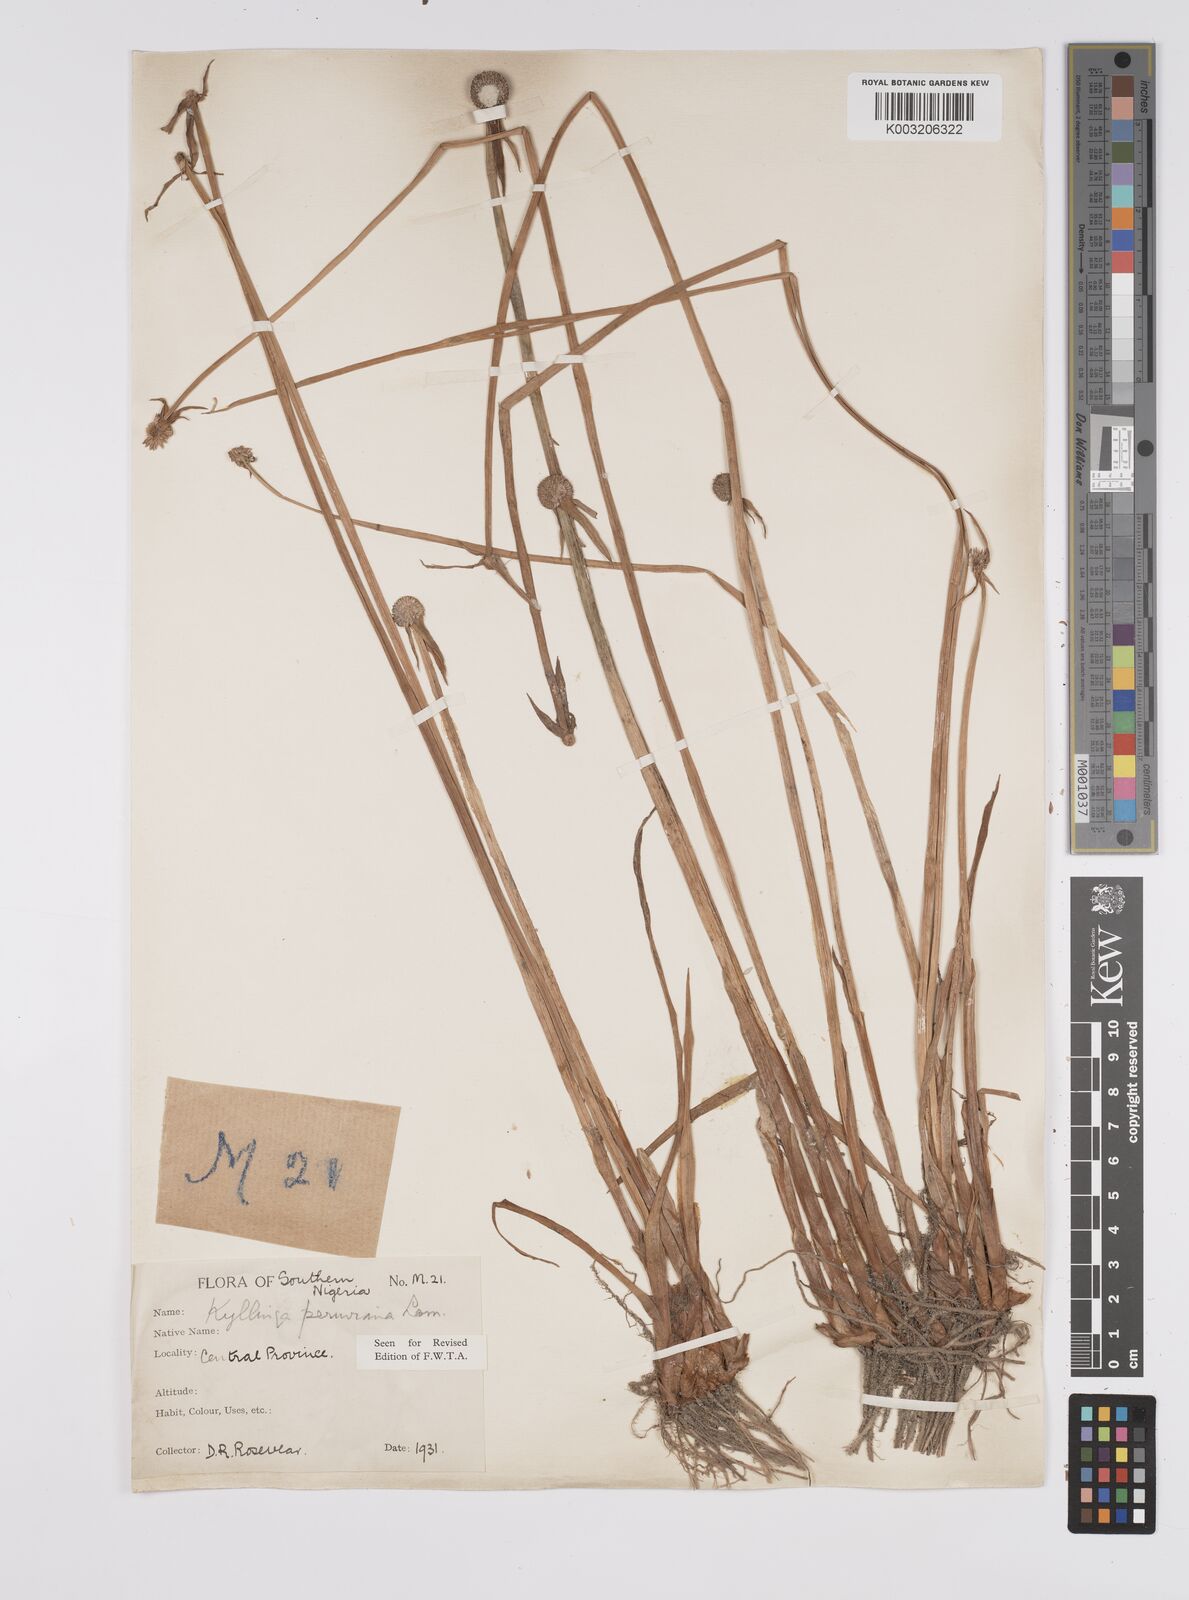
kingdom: Plantae
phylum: Tracheophyta
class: Liliopsida
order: Poales
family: Cyperaceae
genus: Cyperus
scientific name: Cyperus
